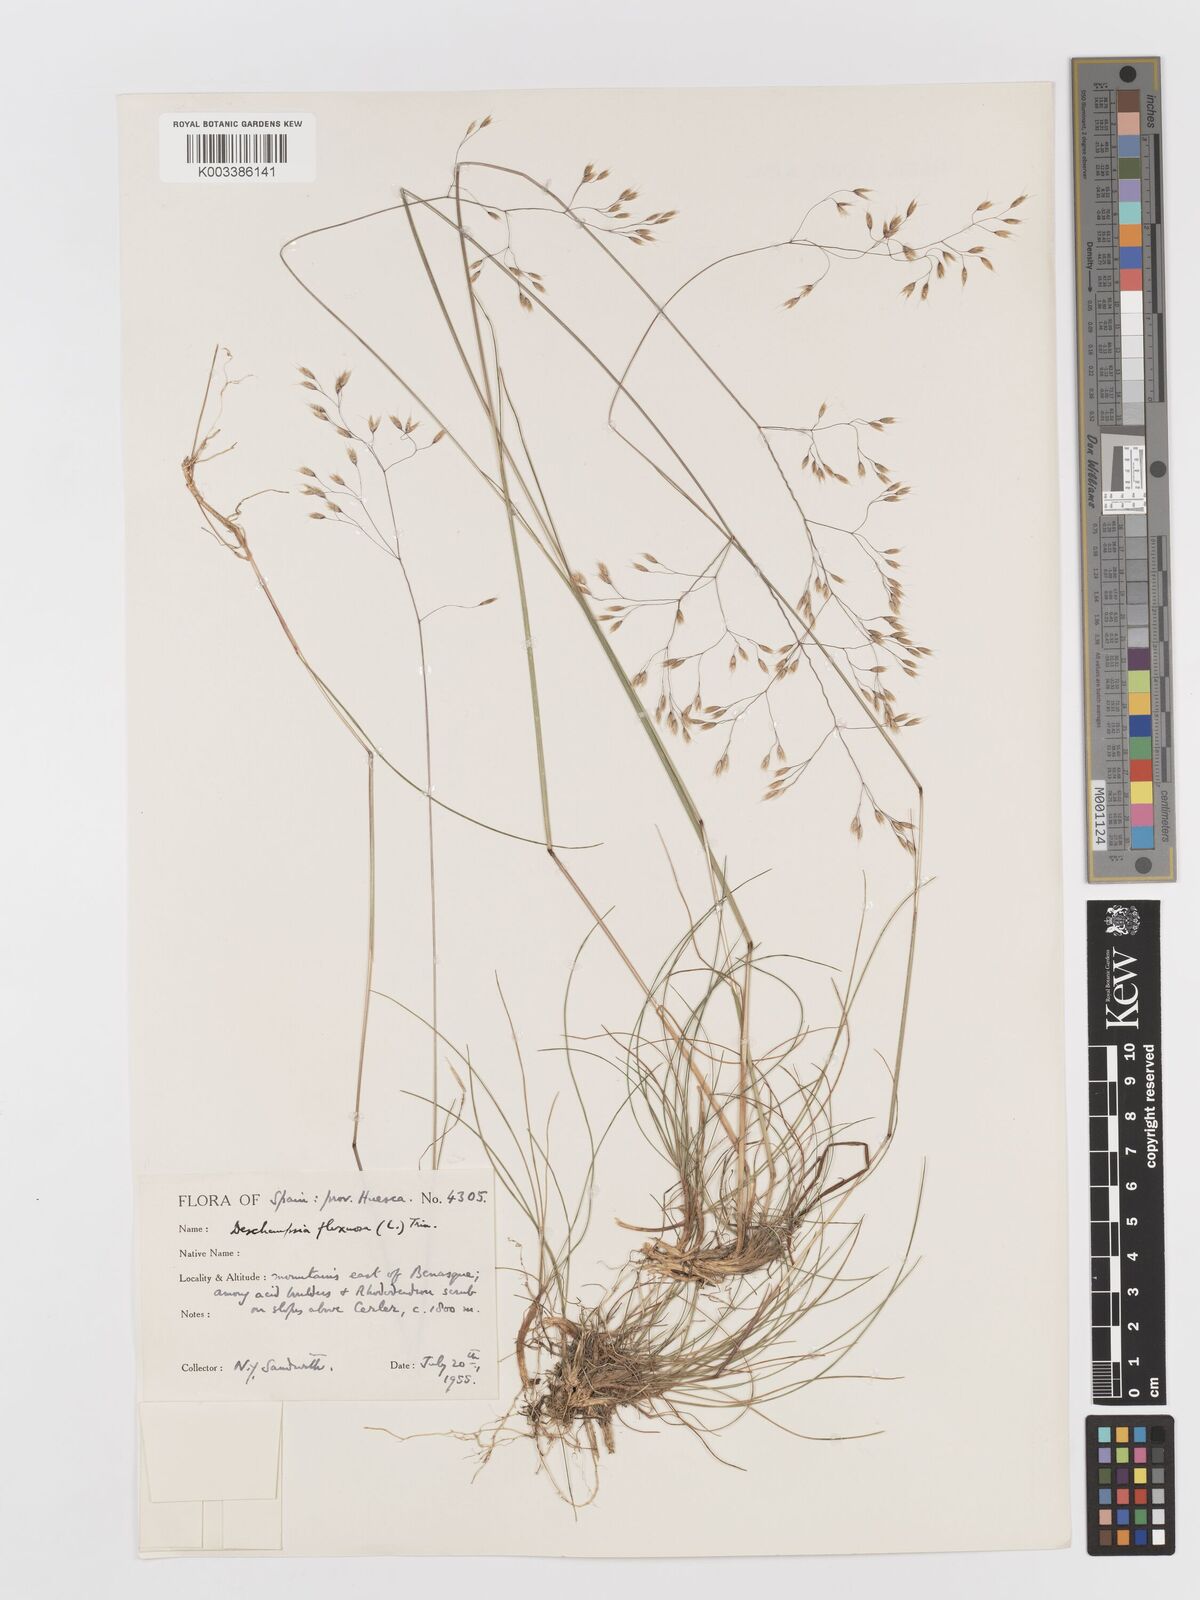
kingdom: Plantae
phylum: Tracheophyta
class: Liliopsida
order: Poales
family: Poaceae
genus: Avenella
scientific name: Avenella flexuosa
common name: Wavy hairgrass
